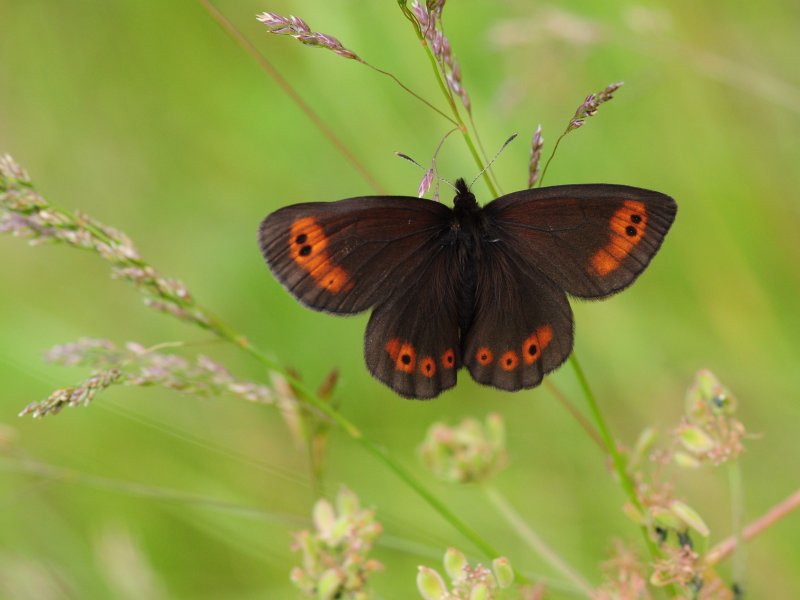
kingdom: Animalia
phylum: Arthropoda
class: Insecta
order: Lepidoptera
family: Nymphalidae
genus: Erebia
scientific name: Erebia epipsodea
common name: Common Alpine
